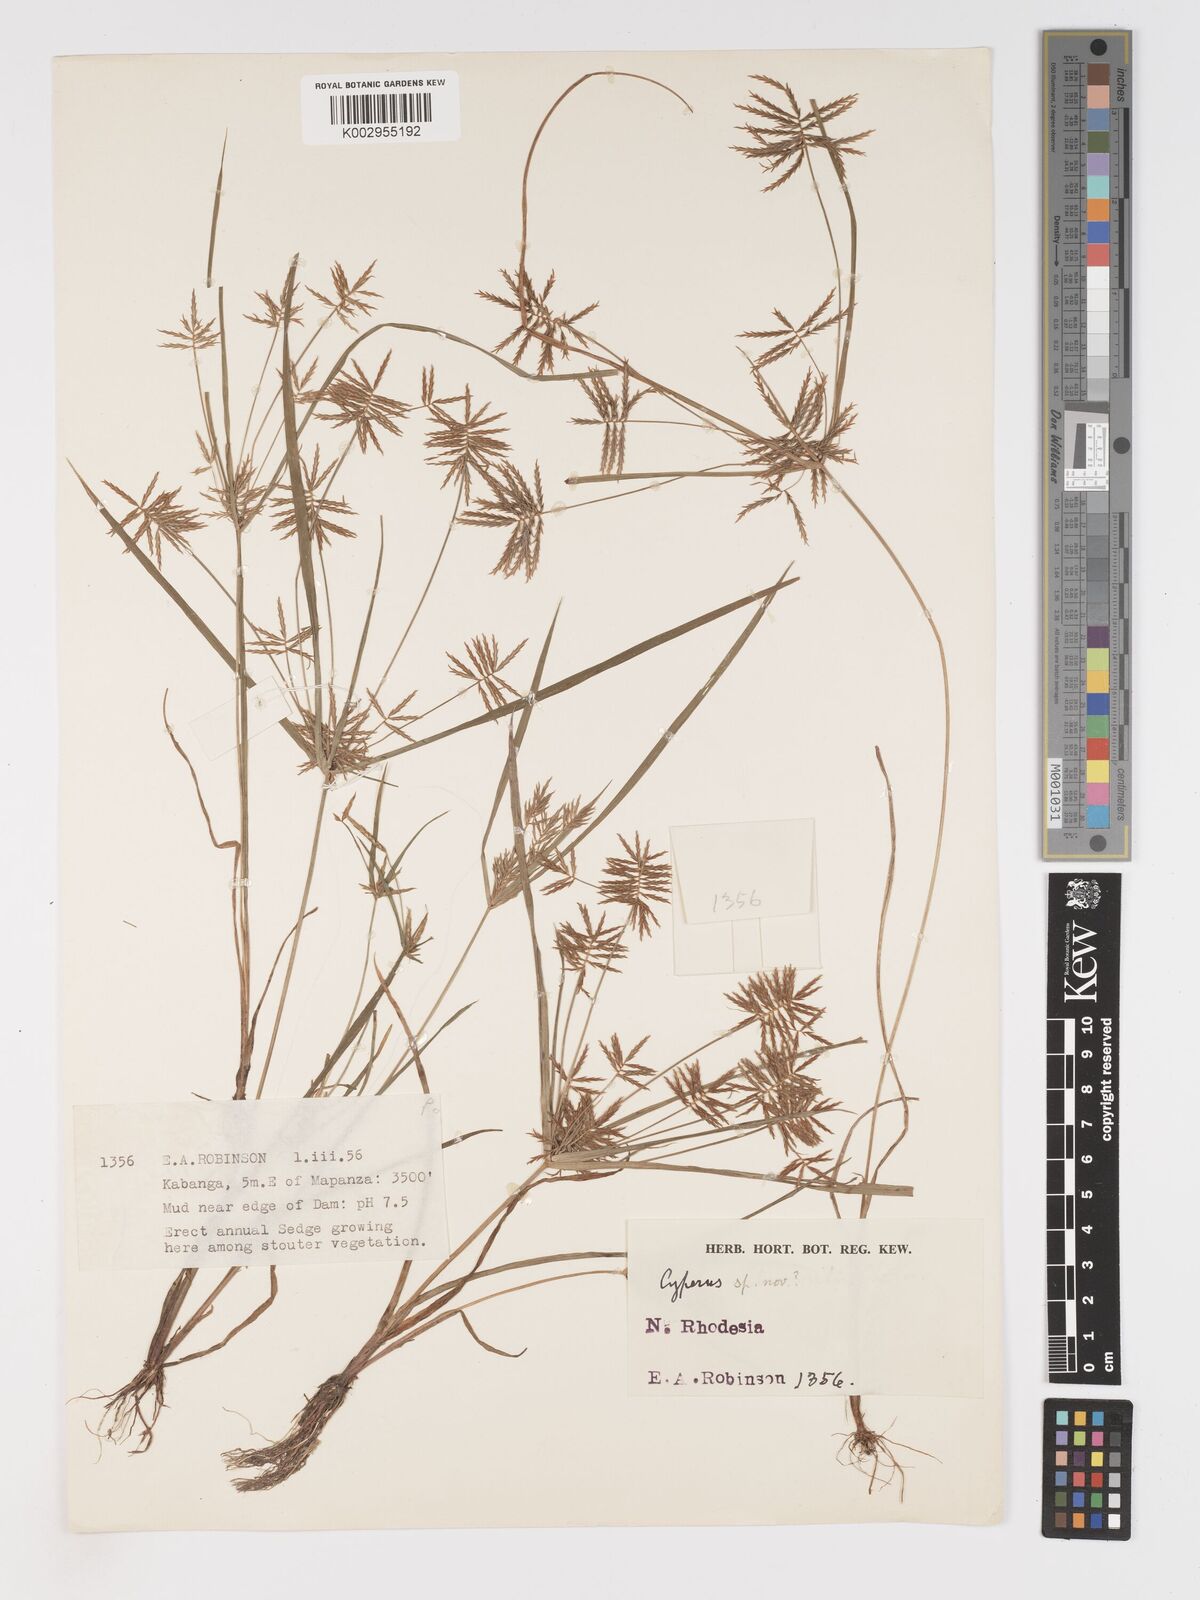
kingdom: Plantae
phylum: Tracheophyta
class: Liliopsida
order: Poales
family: Cyperaceae
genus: Cyperus
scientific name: Cyperus
